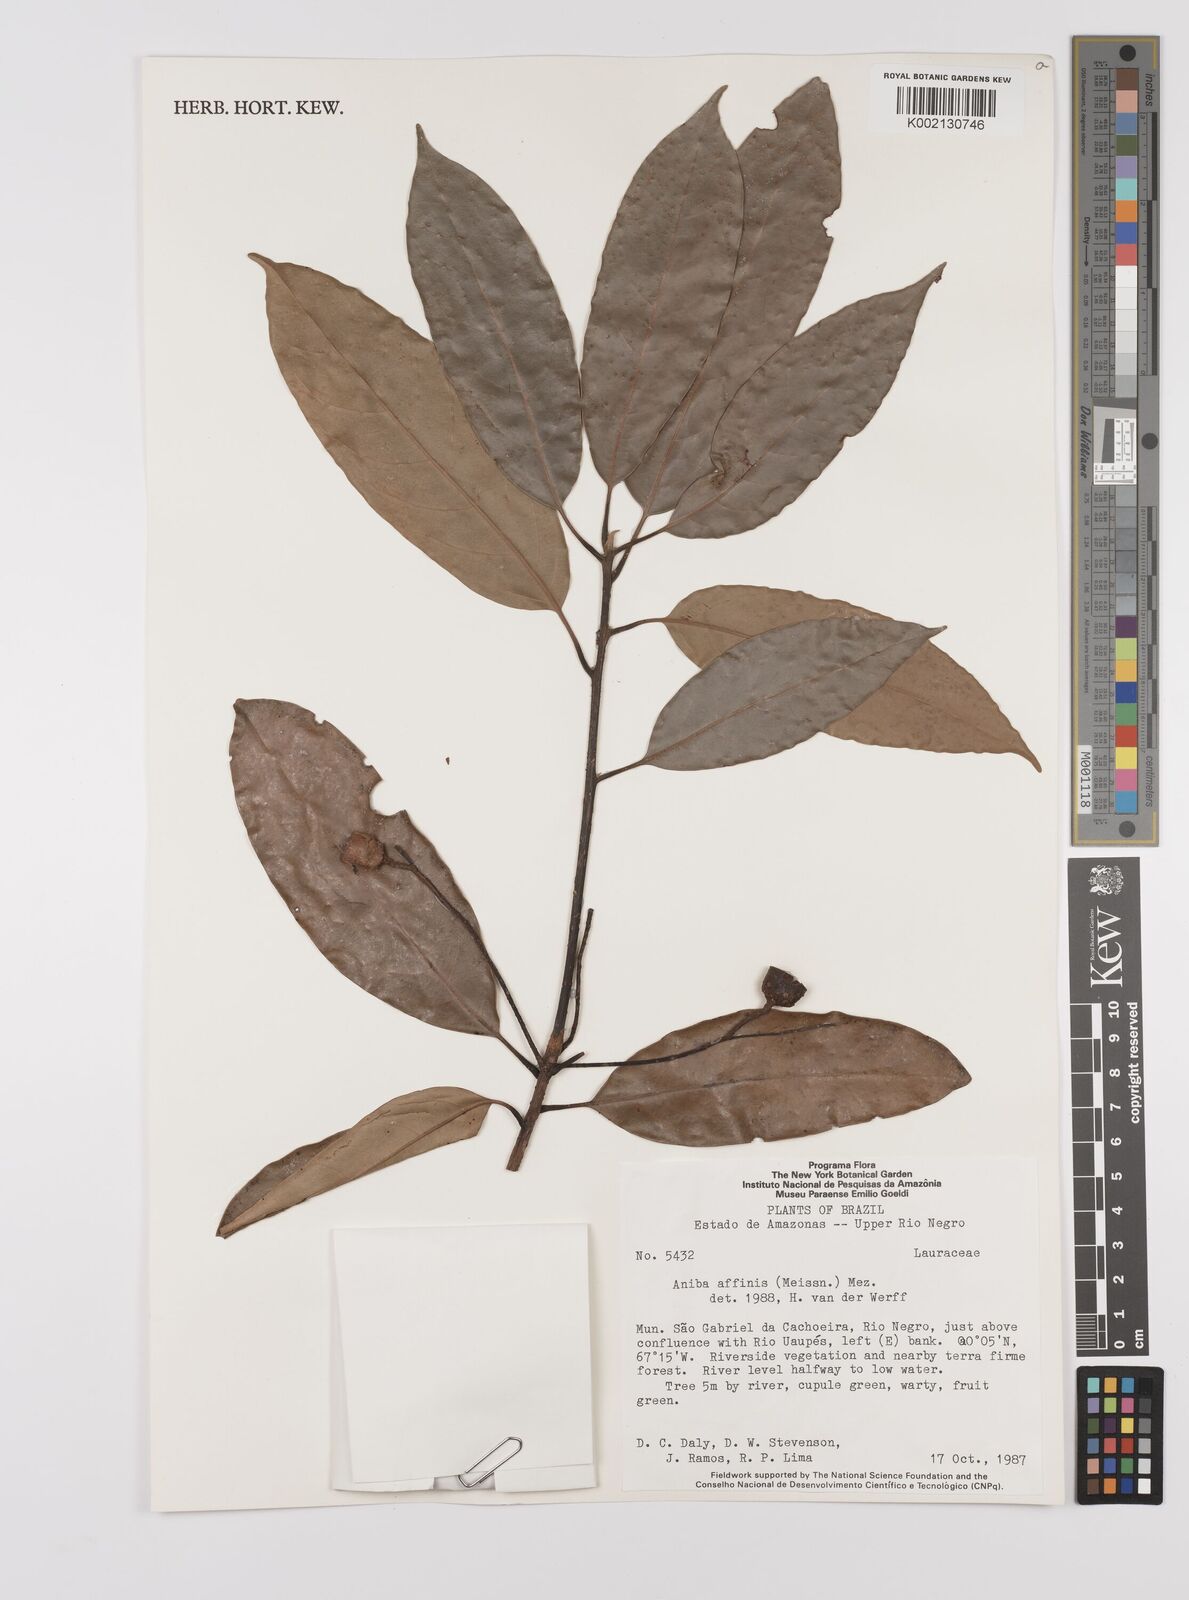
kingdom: Plantae
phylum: Tracheophyta
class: Magnoliopsida
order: Laurales
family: Lauraceae
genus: Aniba
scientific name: Aniba affinis
